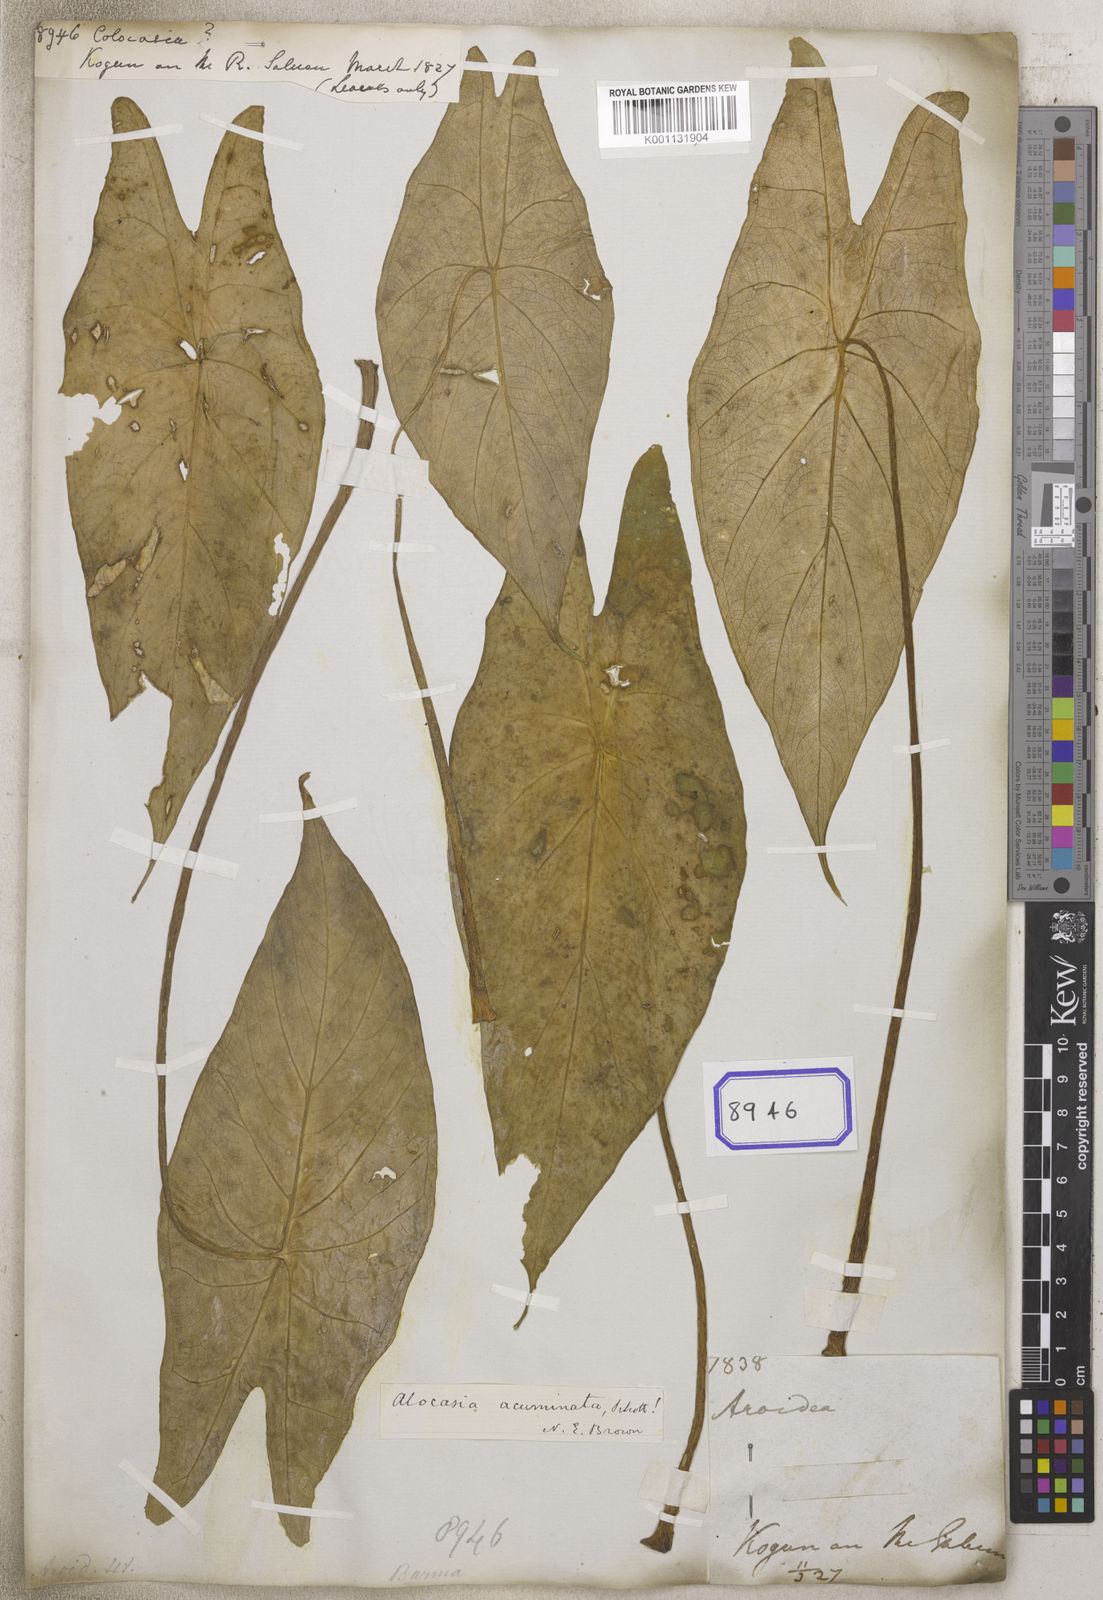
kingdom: Plantae
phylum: Tracheophyta
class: Liliopsida
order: Alismatales
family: Araceae
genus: Colocasia
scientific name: Colocasia spec
